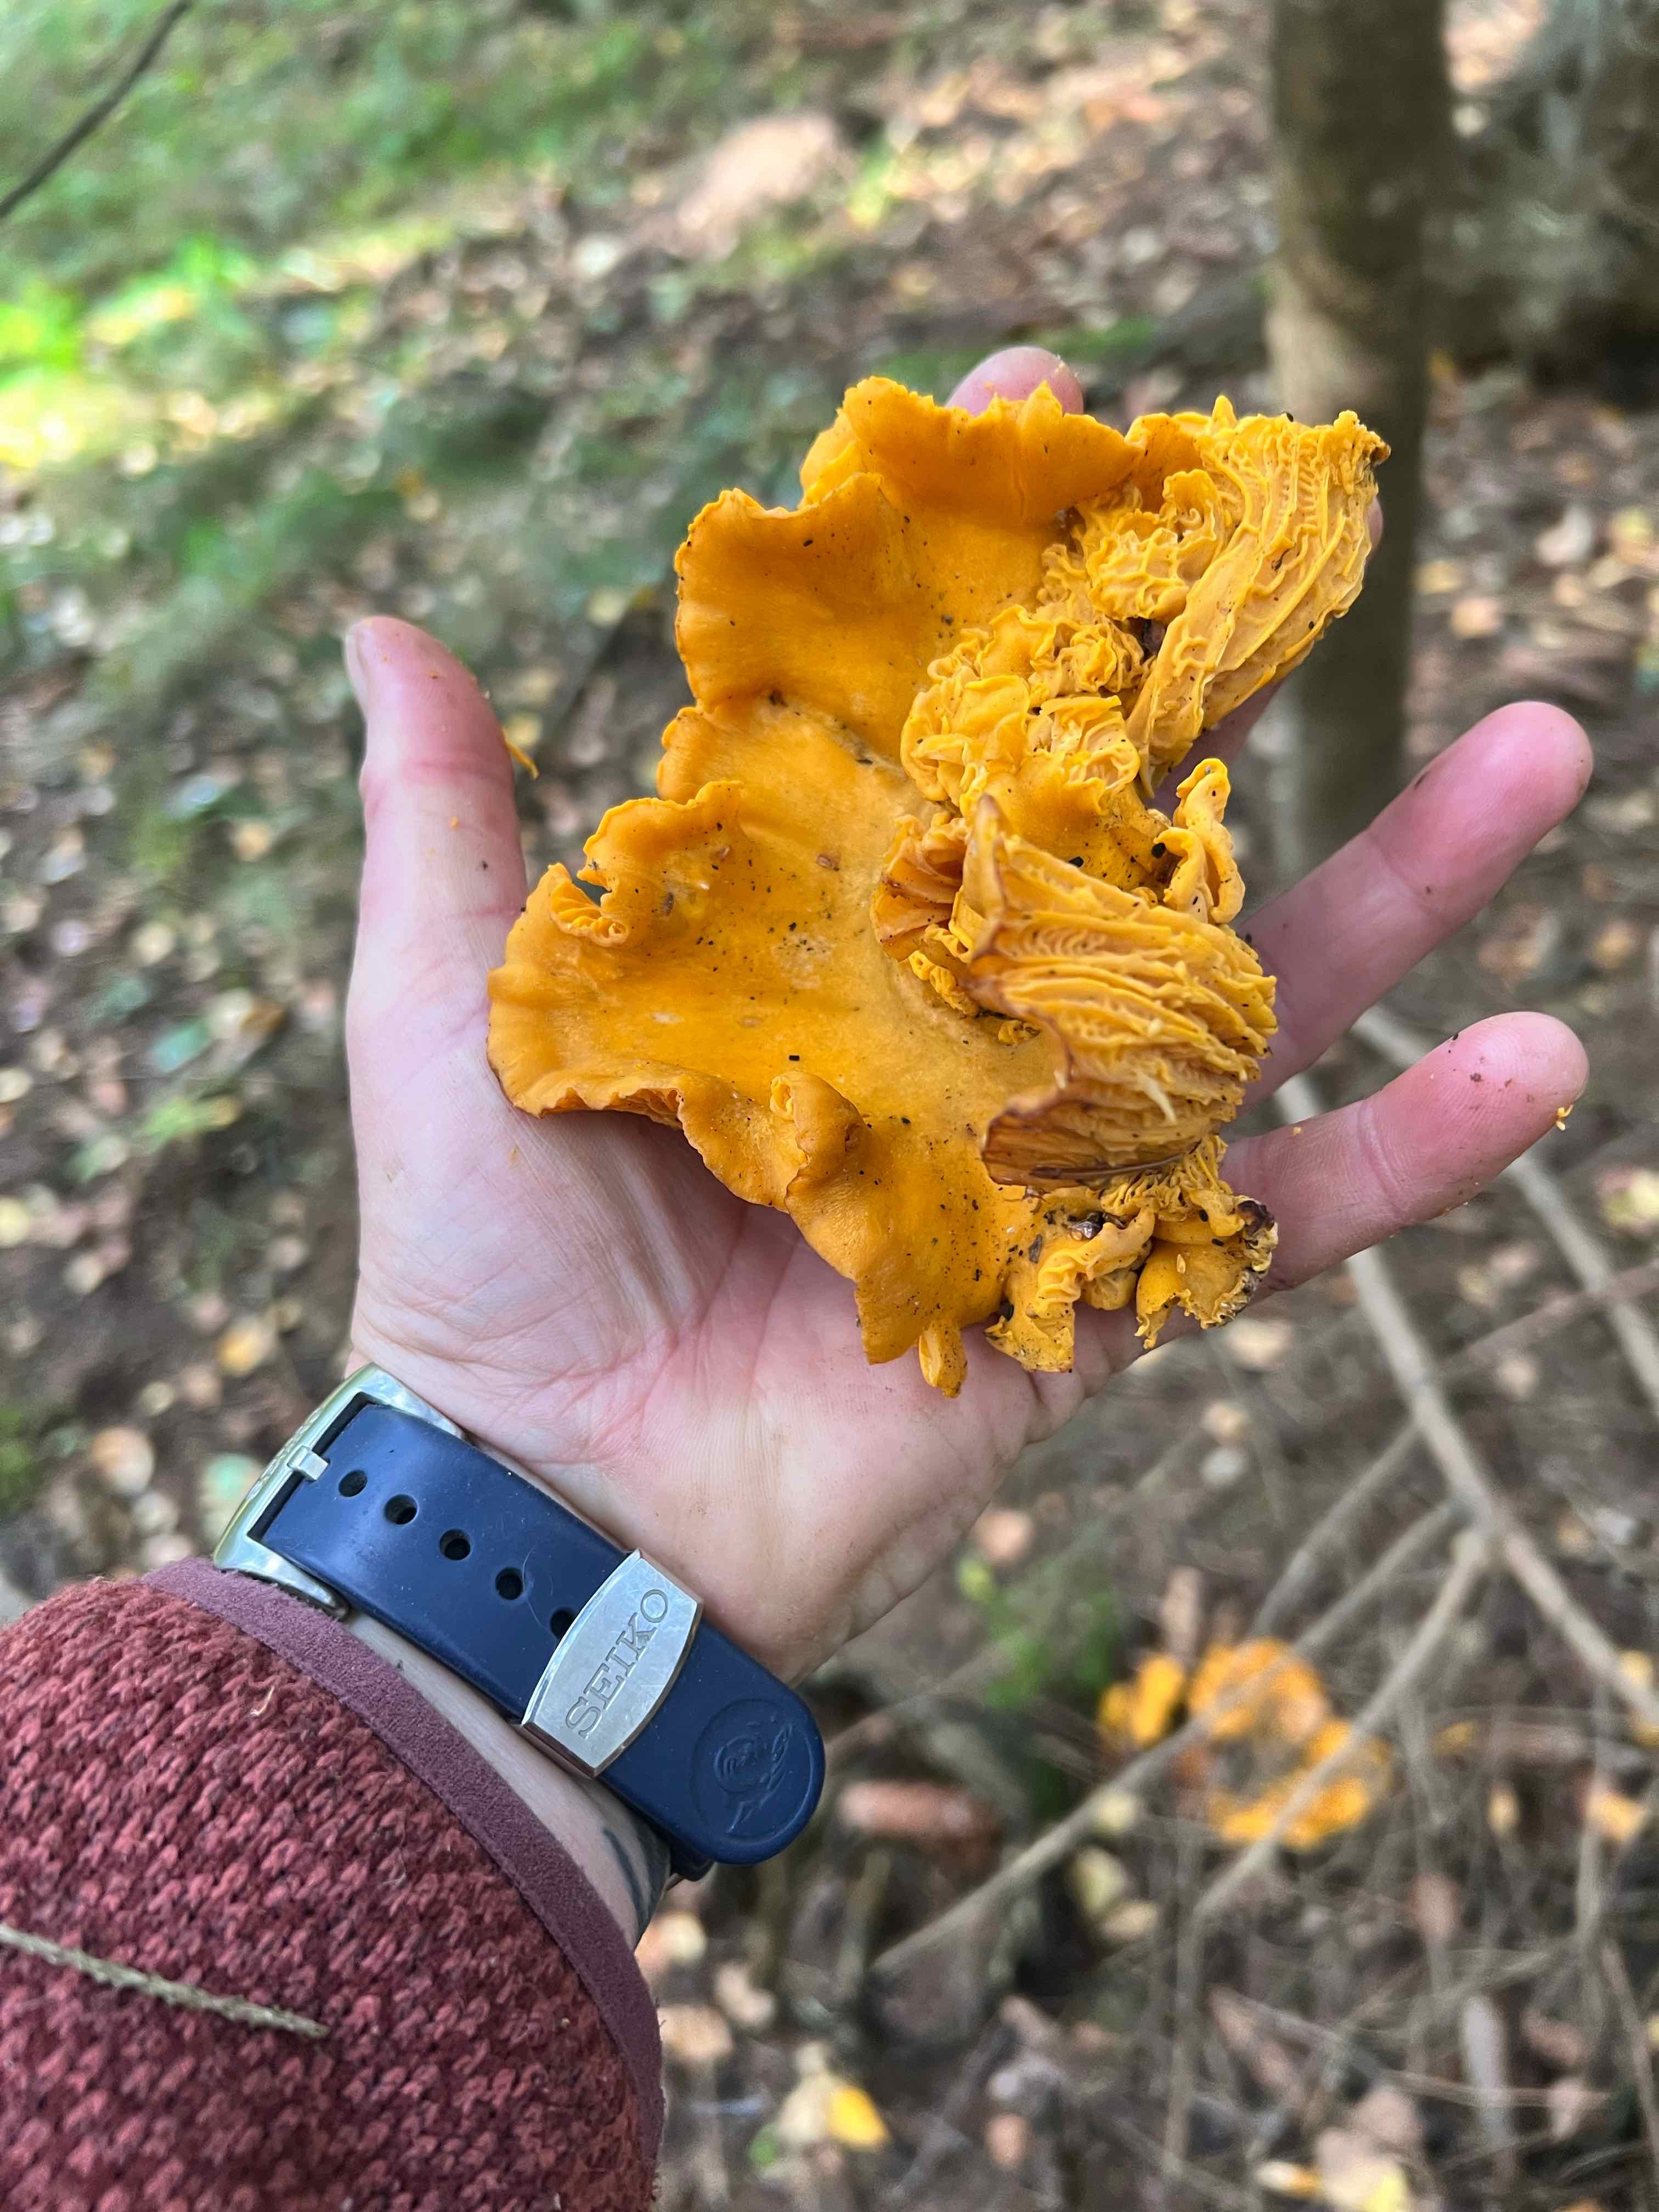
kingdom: Fungi
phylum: Basidiomycota
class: Agaricomycetes
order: Cantharellales
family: Hydnaceae
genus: Cantharellus
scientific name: Cantharellus cibarius
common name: almindelig kantarel
